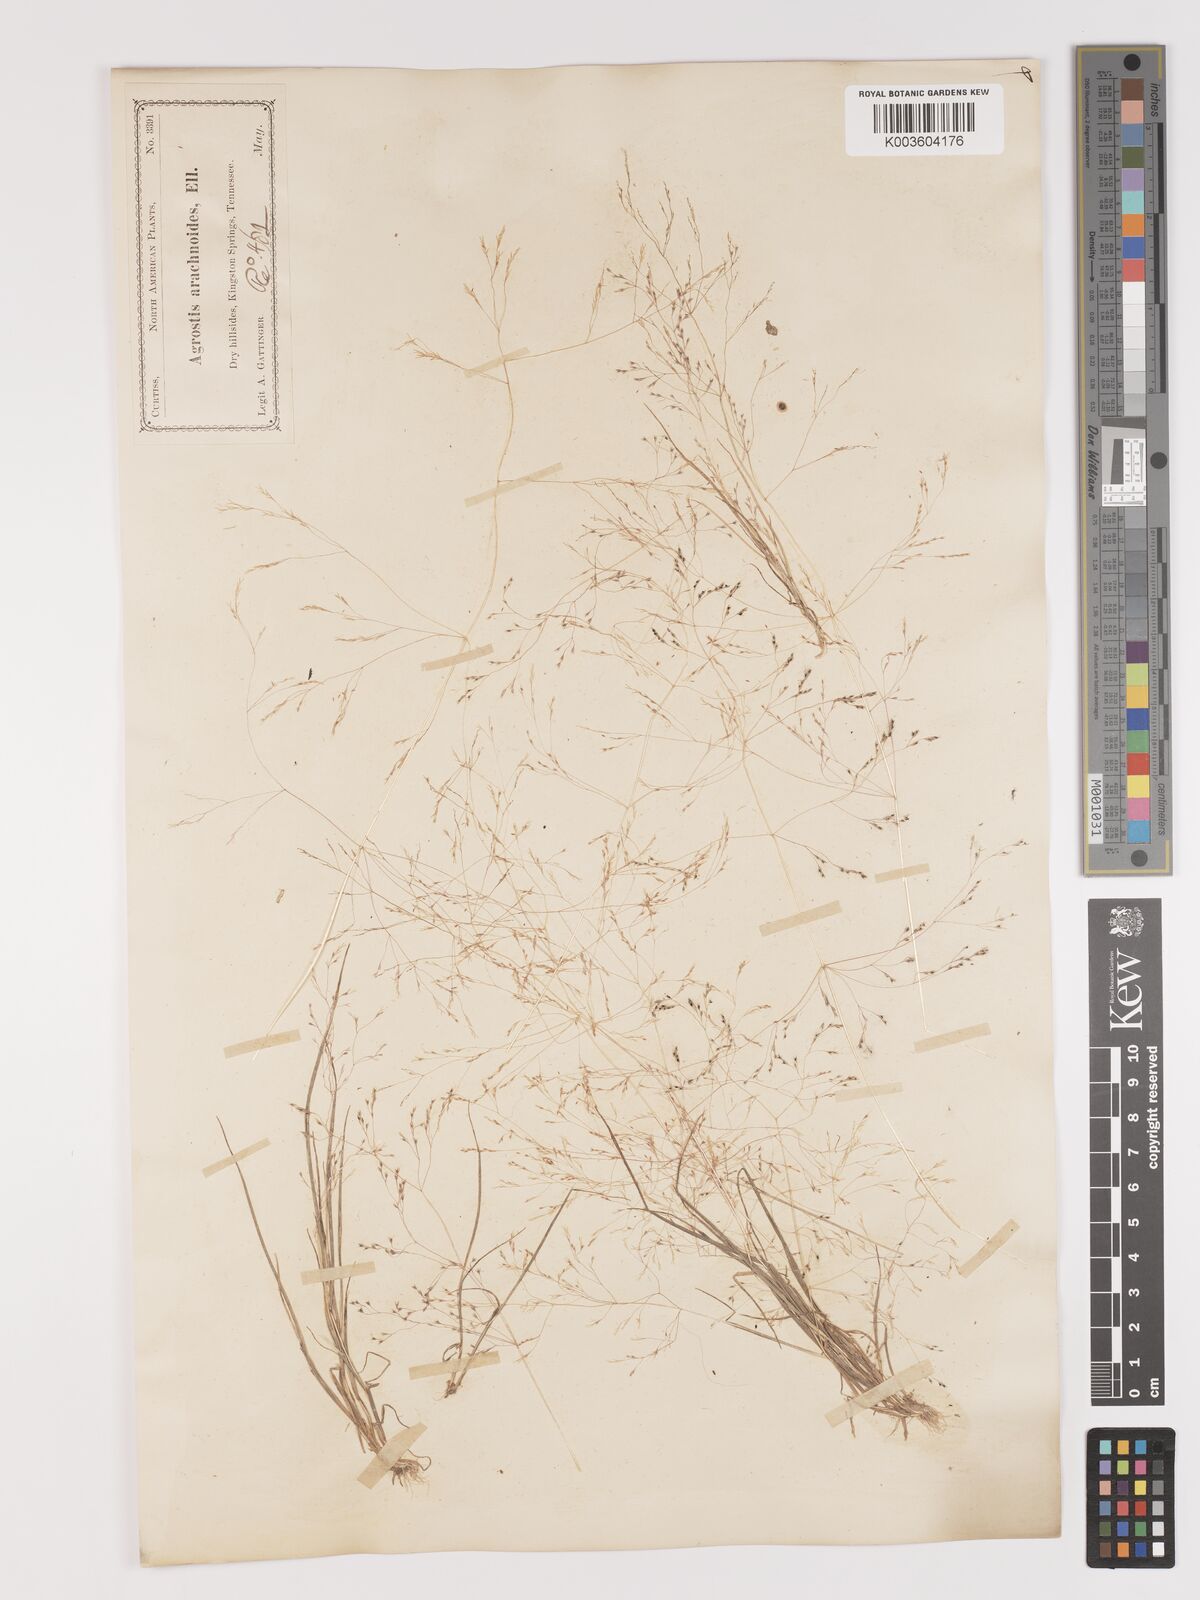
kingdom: Plantae
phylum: Tracheophyta
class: Liliopsida
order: Poales
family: Poaceae
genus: Agrostis
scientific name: Agrostis elliottiana
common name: Elliott's bent
